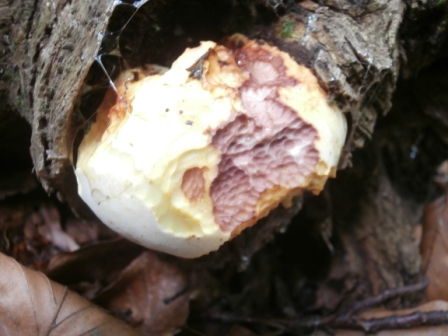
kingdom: Fungi
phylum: Basidiomycota
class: Agaricomycetes
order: Polyporales
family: Fomitopsidaceae
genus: Buglossoporus
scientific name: Buglossoporus quercinus
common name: egetunge
